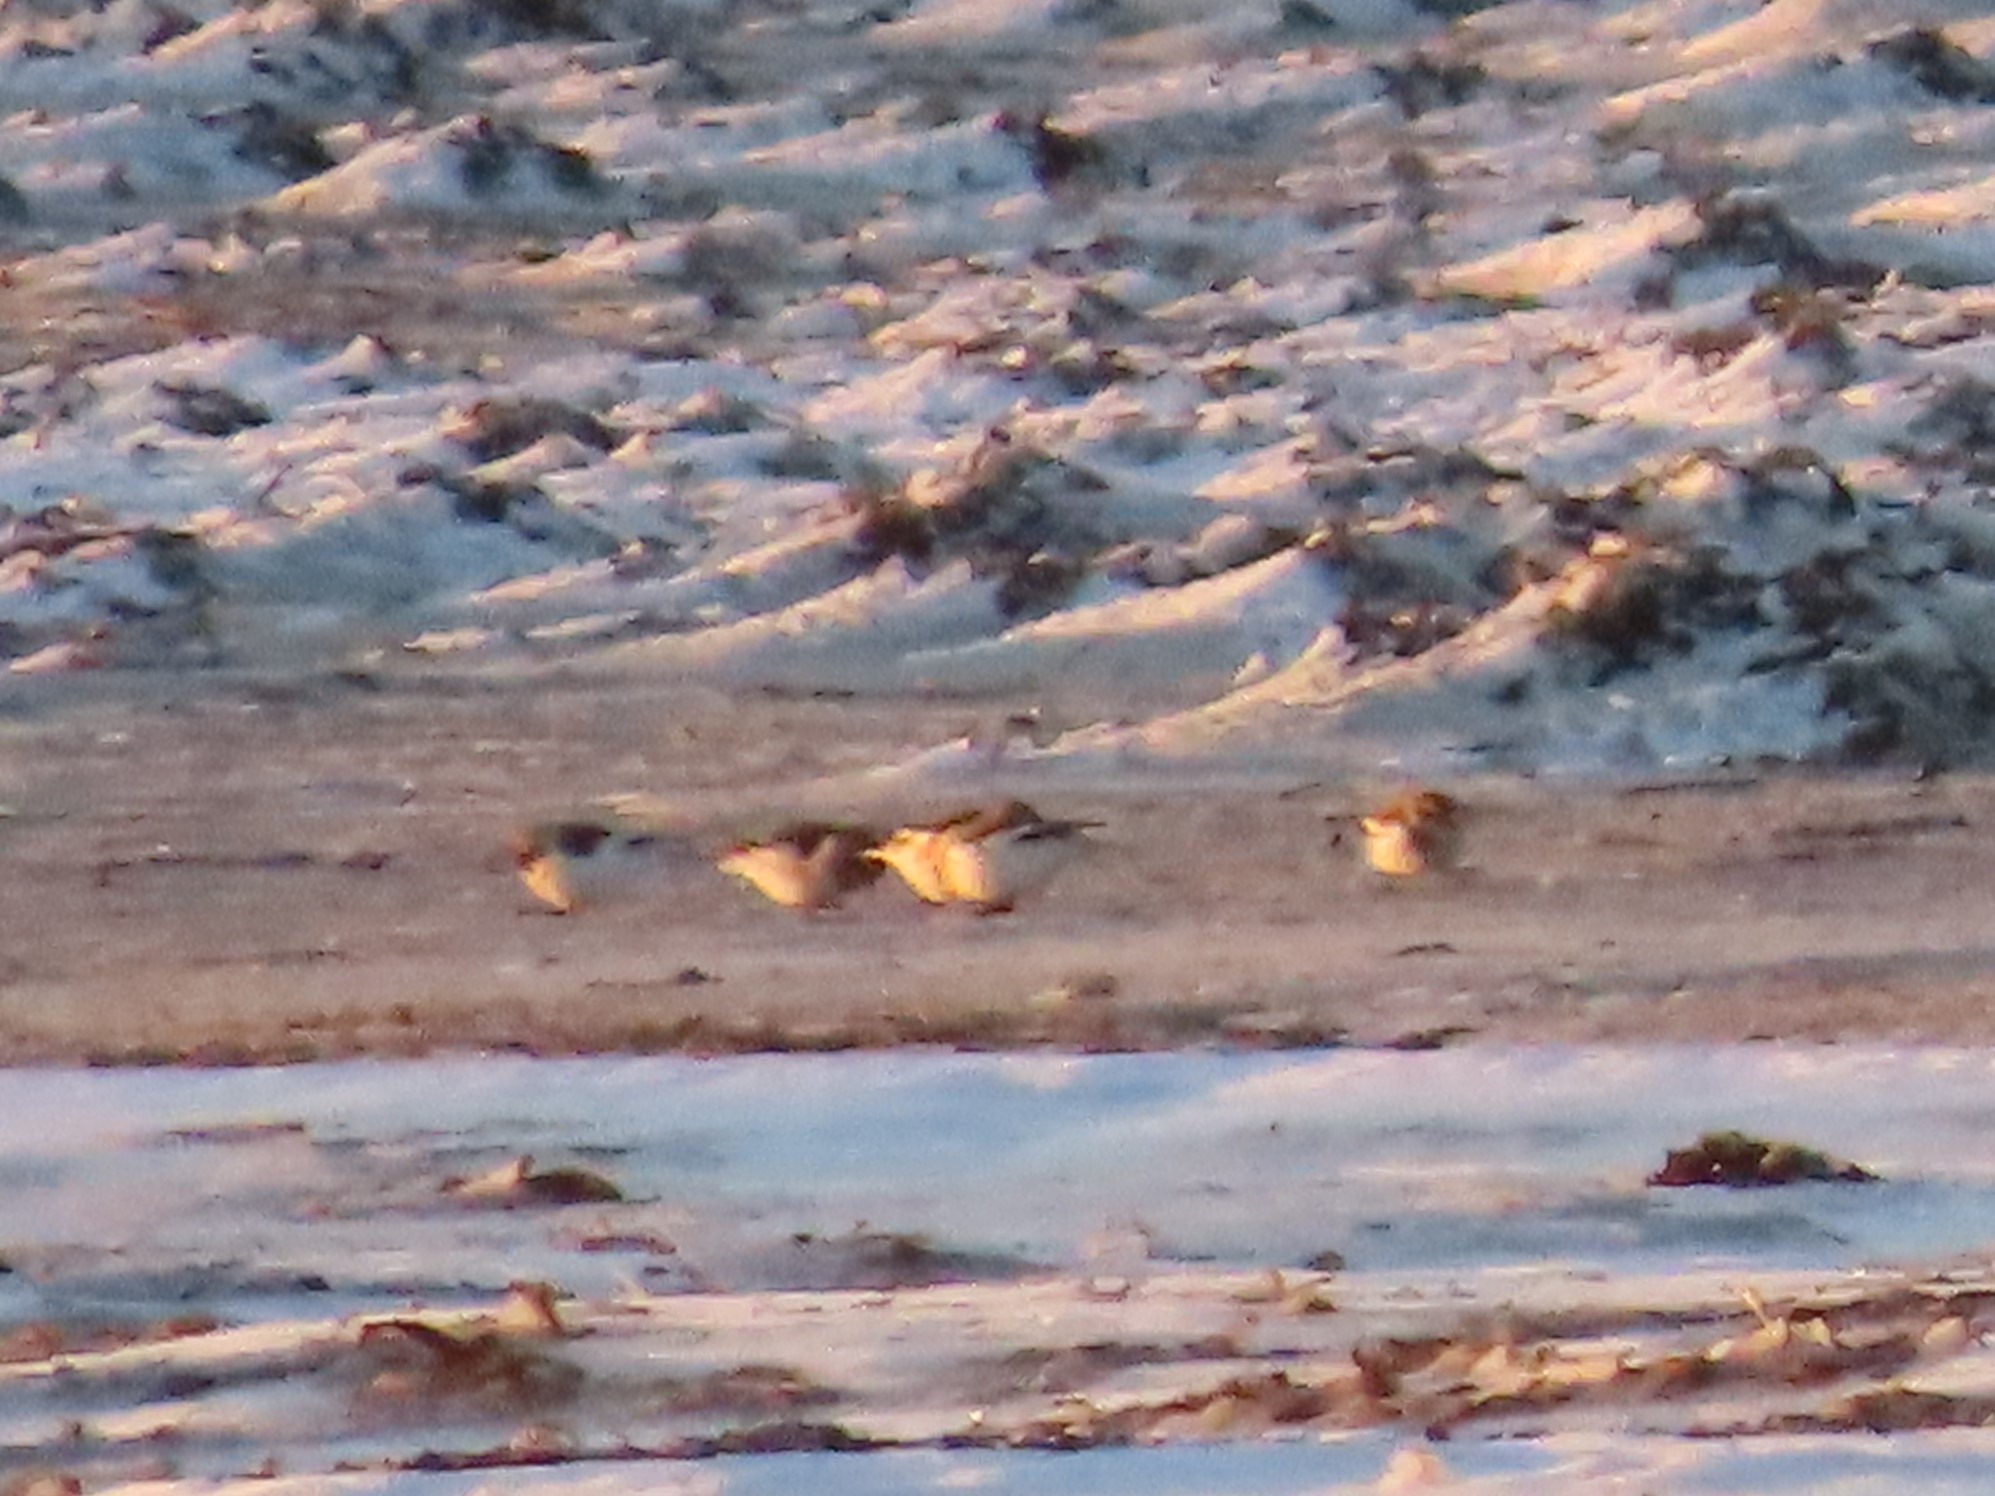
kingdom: Animalia
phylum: Chordata
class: Aves
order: Passeriformes
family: Calcariidae
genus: Plectrophenax
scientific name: Plectrophenax nivalis
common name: Snespurv
